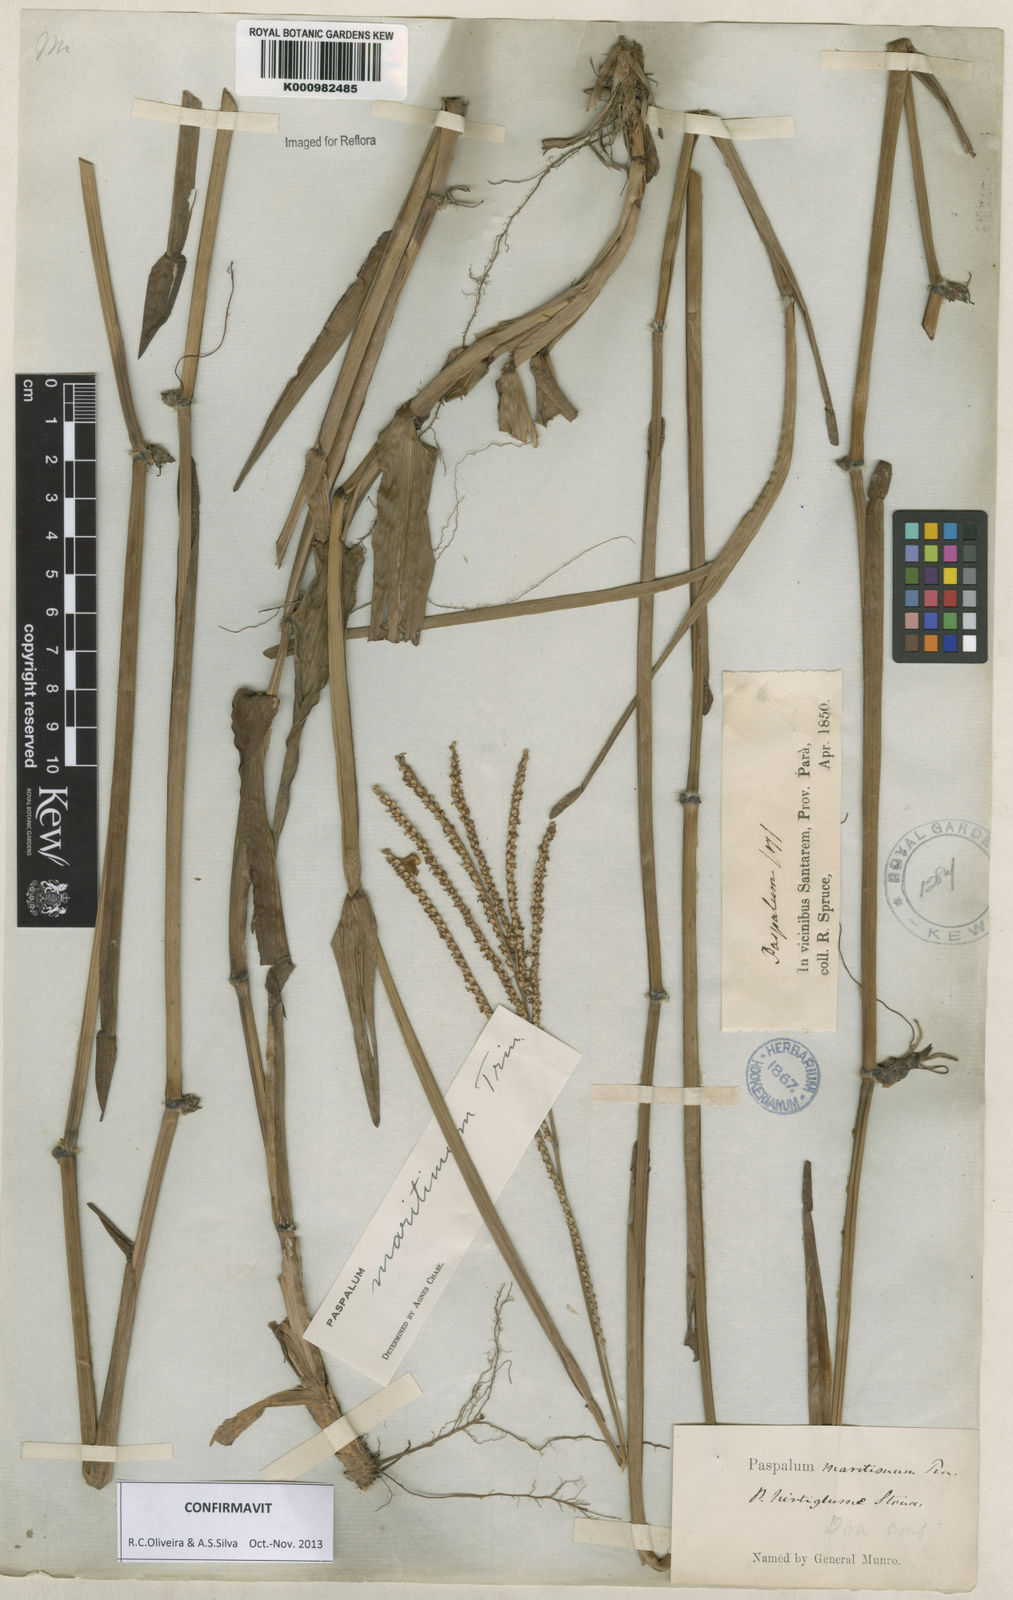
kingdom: Plantae
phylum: Tracheophyta
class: Liliopsida
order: Poales
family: Poaceae
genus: Paspalum
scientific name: Paspalum maritimum
